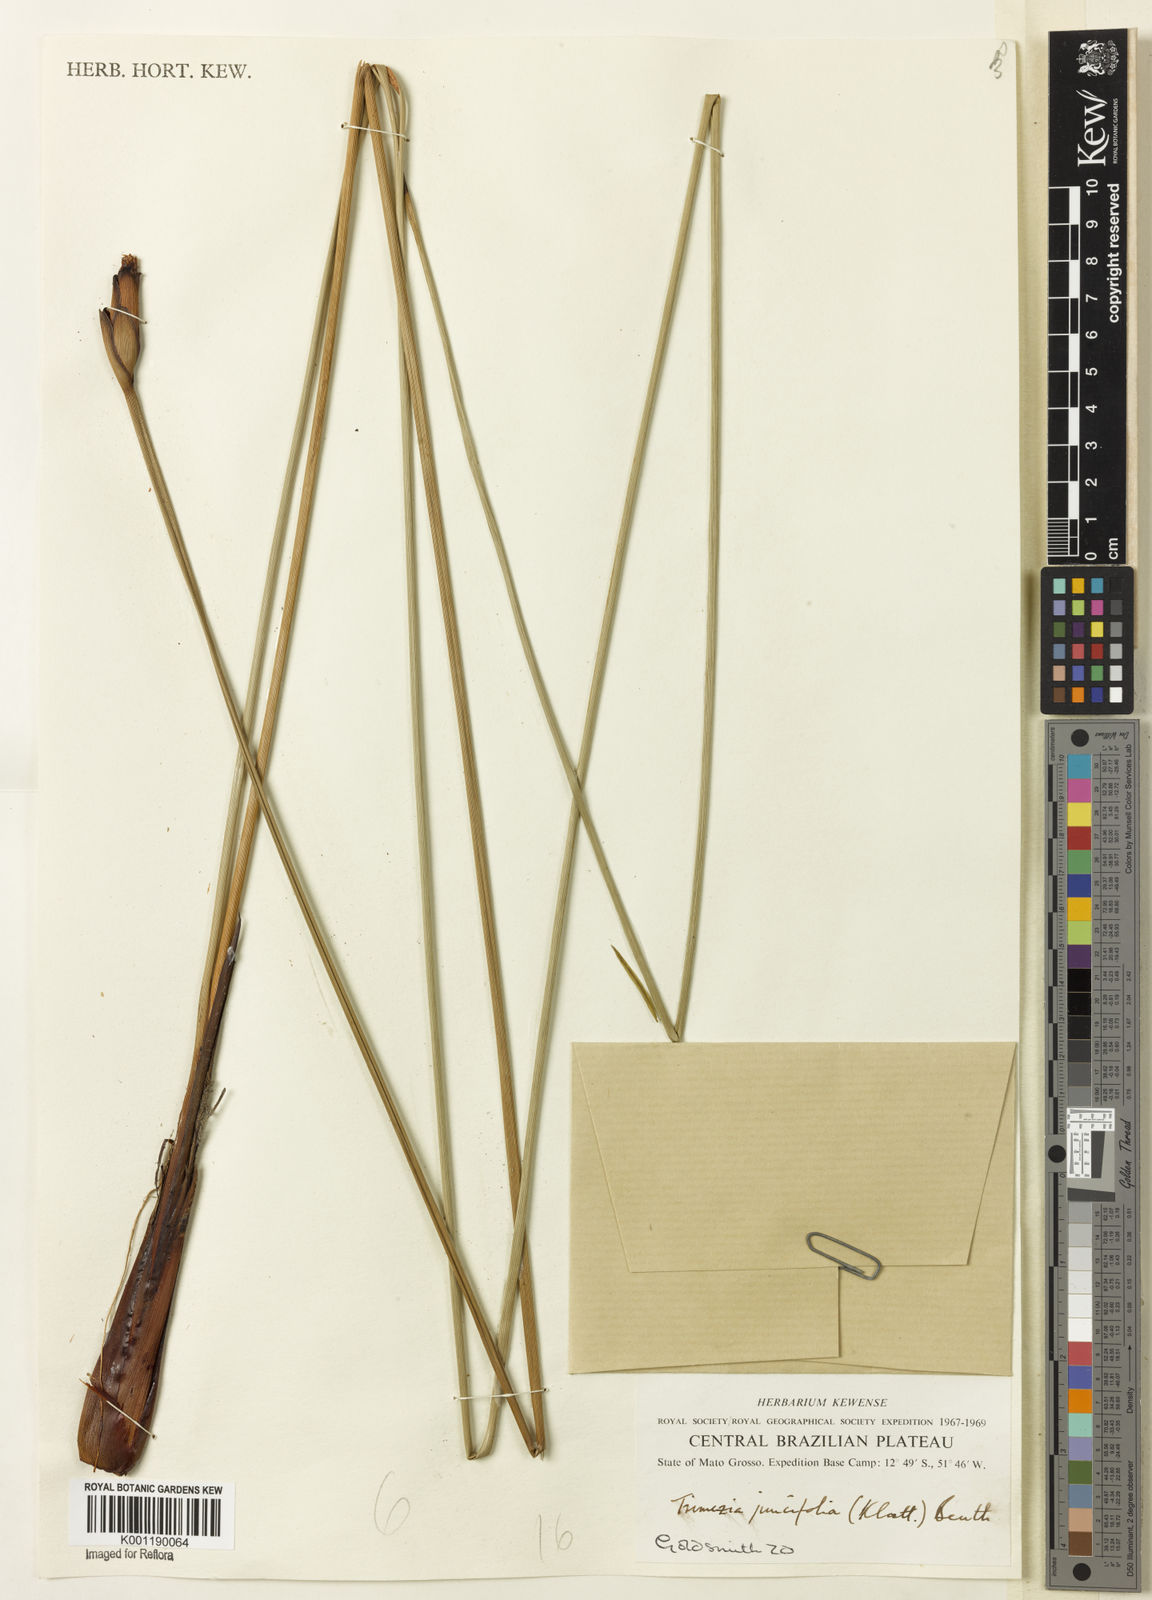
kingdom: Plantae
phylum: Tracheophyta
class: Liliopsida
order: Asparagales
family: Iridaceae
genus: Trimezia
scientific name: Trimezia juncifolia
